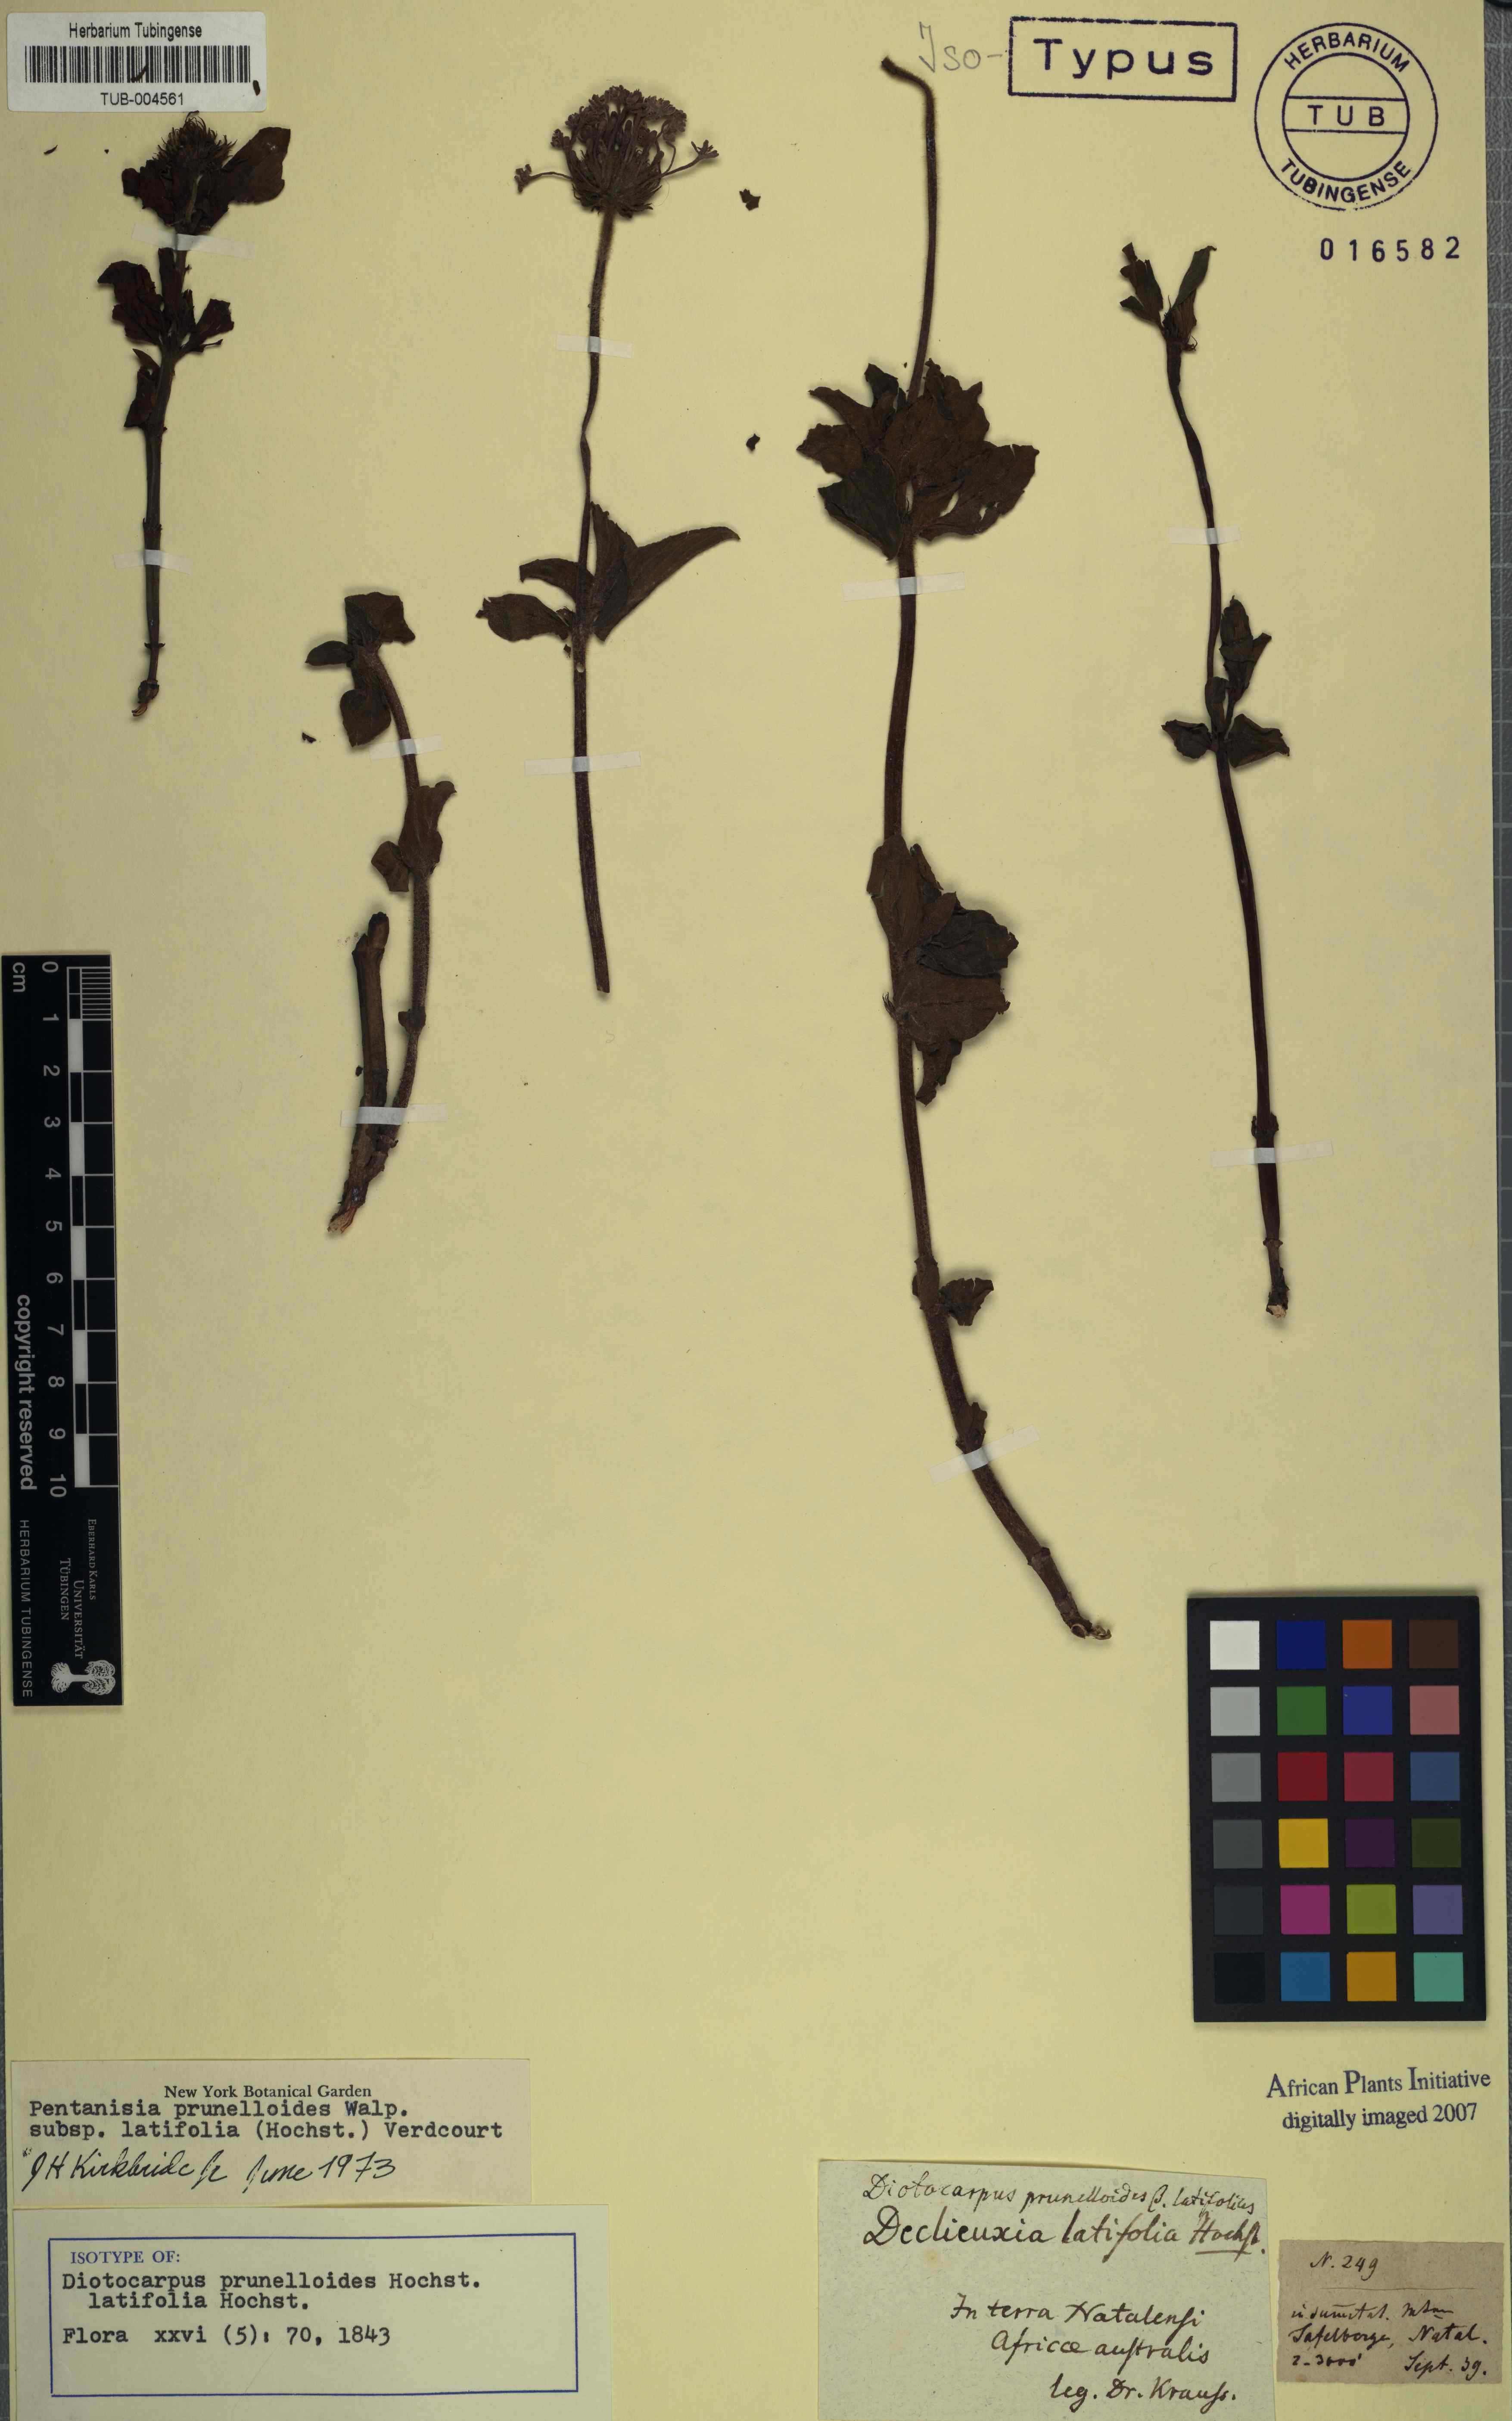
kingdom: Plantae
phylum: Tracheophyta
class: Magnoliopsida
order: Gentianales
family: Rubiaceae
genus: Pentanisia
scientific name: Pentanisia prunelloides
